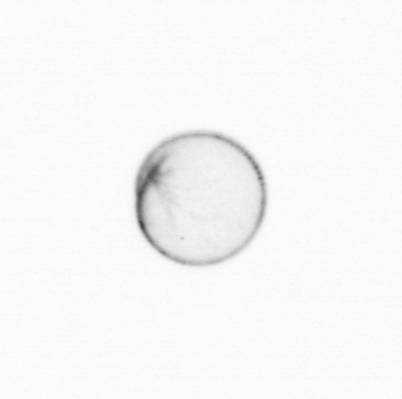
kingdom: Chromista
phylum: Myzozoa
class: Dinophyceae
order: Noctilucales
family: Noctilucaceae
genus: Noctiluca
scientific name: Noctiluca scintillans
